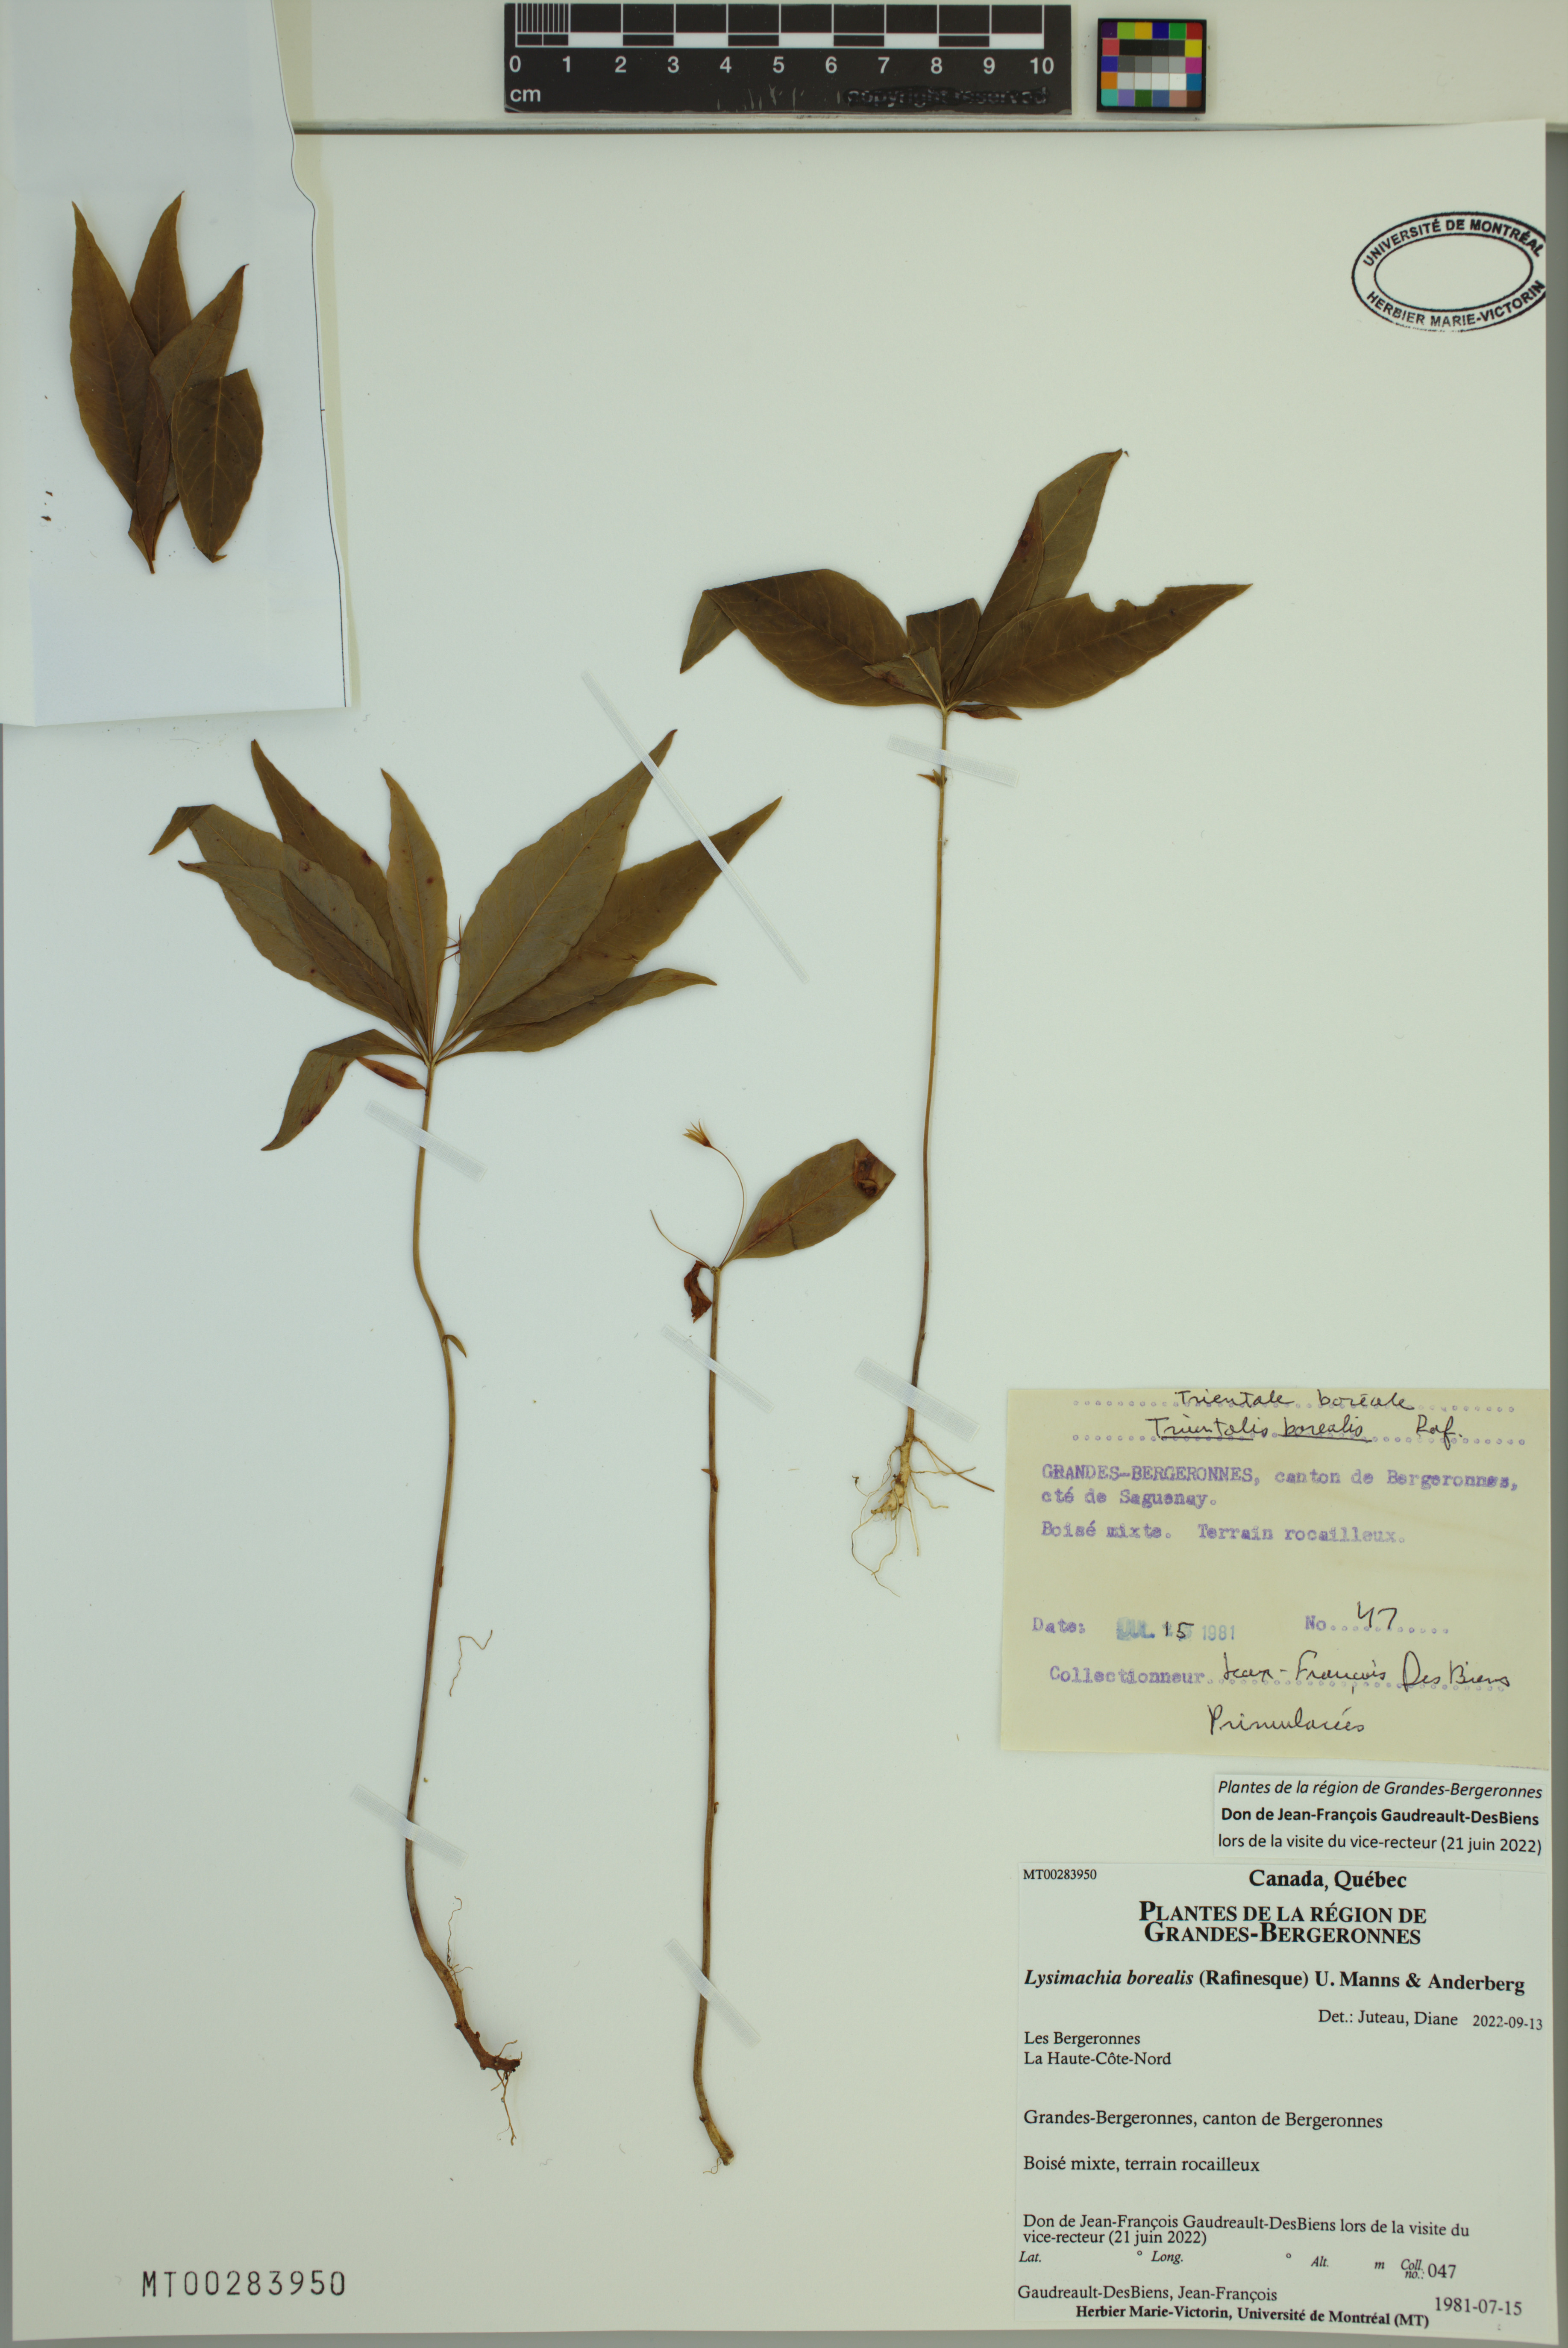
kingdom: Plantae
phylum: Tracheophyta
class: Magnoliopsida
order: Ericales
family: Primulaceae
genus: Lysimachia
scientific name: Lysimachia borealis
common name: American starflower
